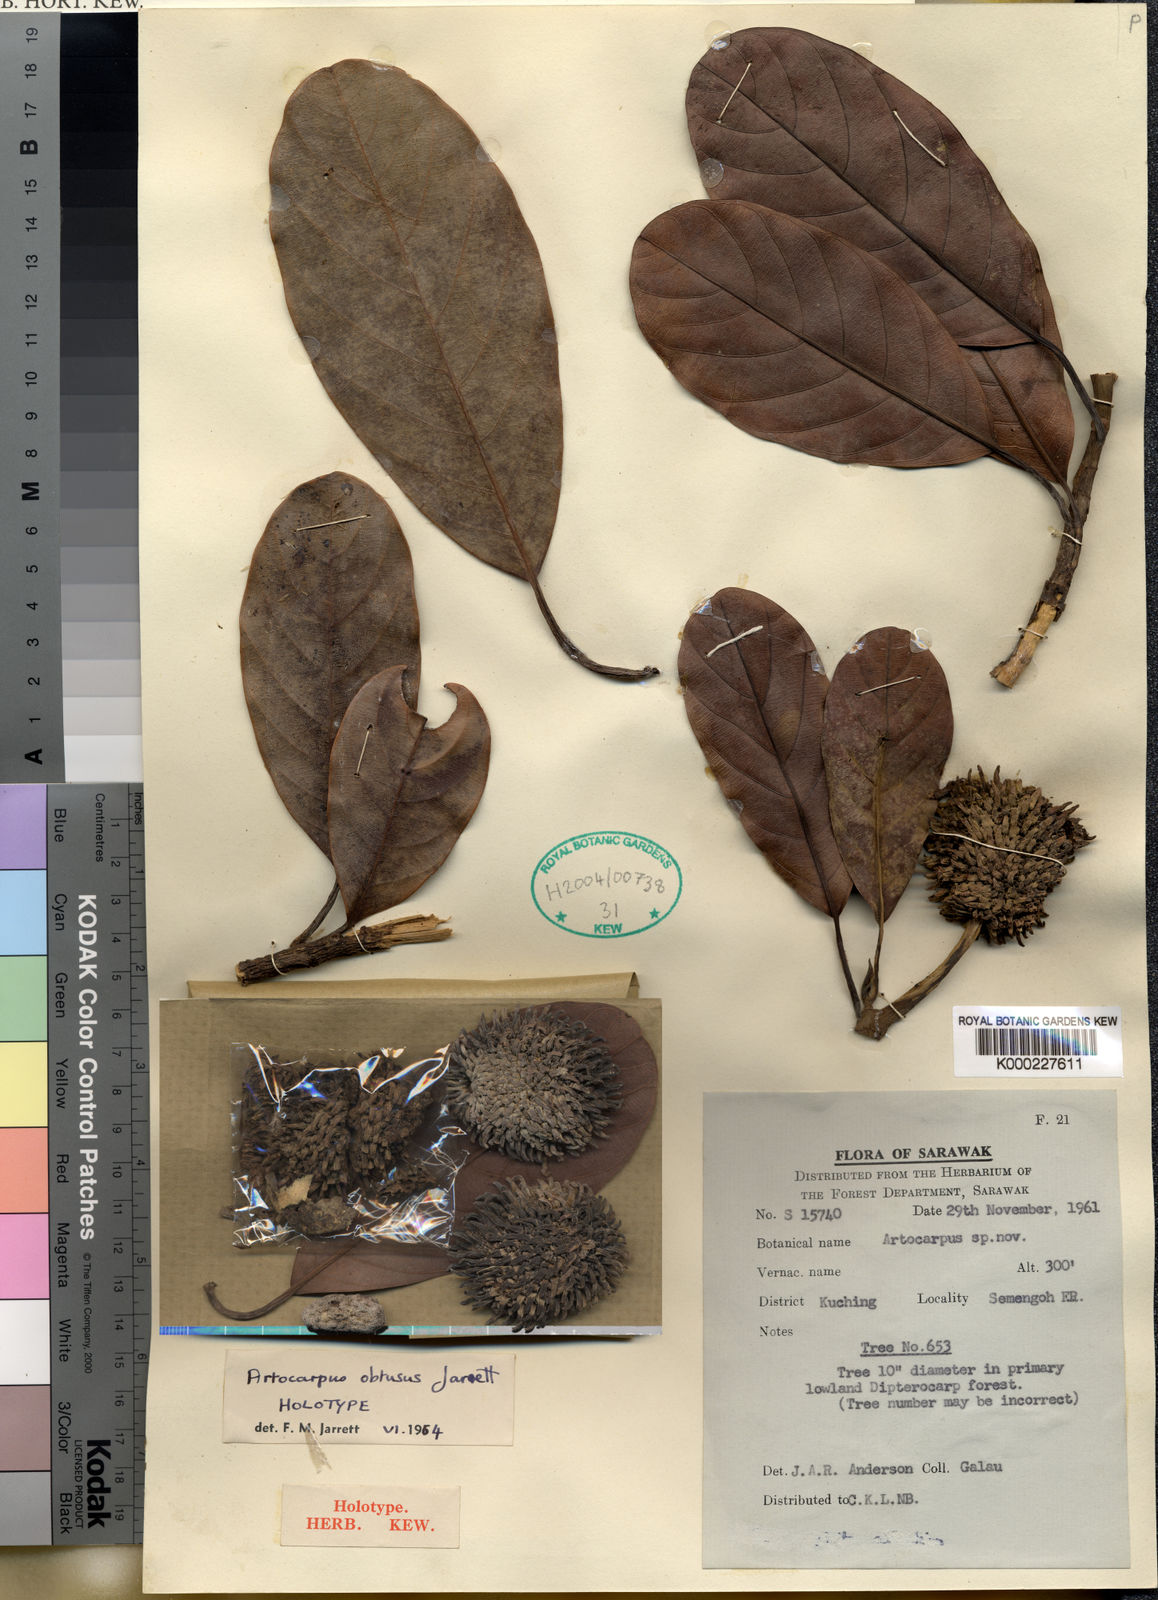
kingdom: Plantae
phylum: Tracheophyta
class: Magnoliopsida
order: Rosales
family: Moraceae
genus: Artocarpus
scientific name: Artocarpus obtusus
